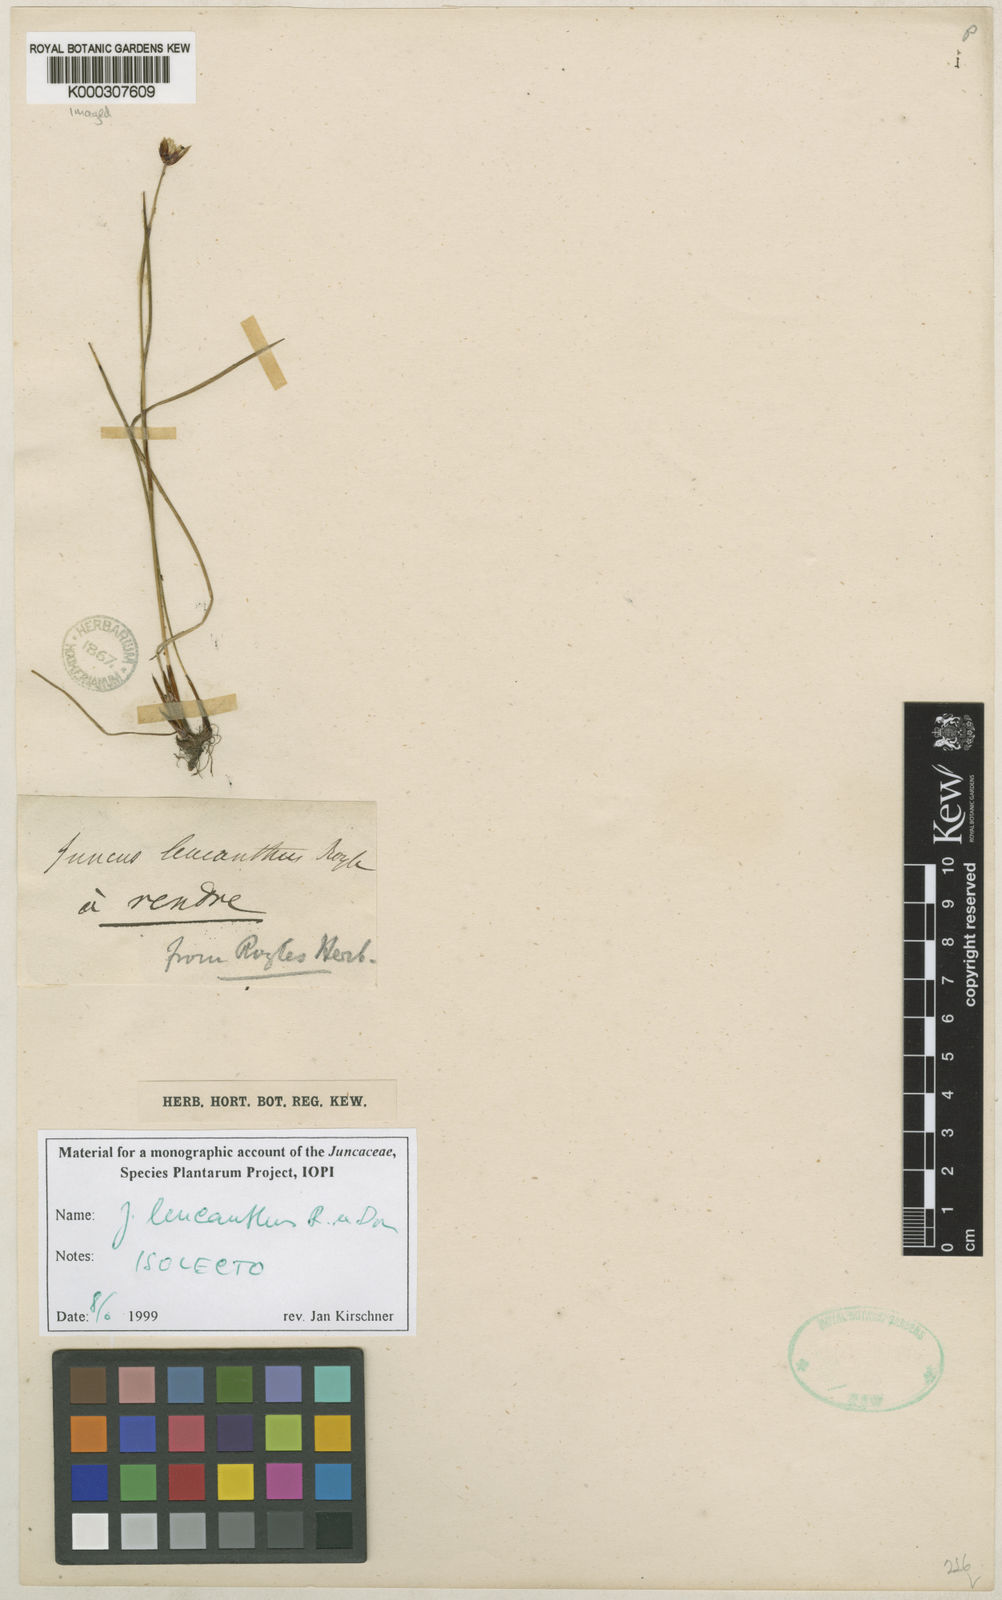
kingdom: Plantae
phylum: Tracheophyta
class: Liliopsida
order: Poales
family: Juncaceae
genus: Juncus
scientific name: Juncus leucanthus
